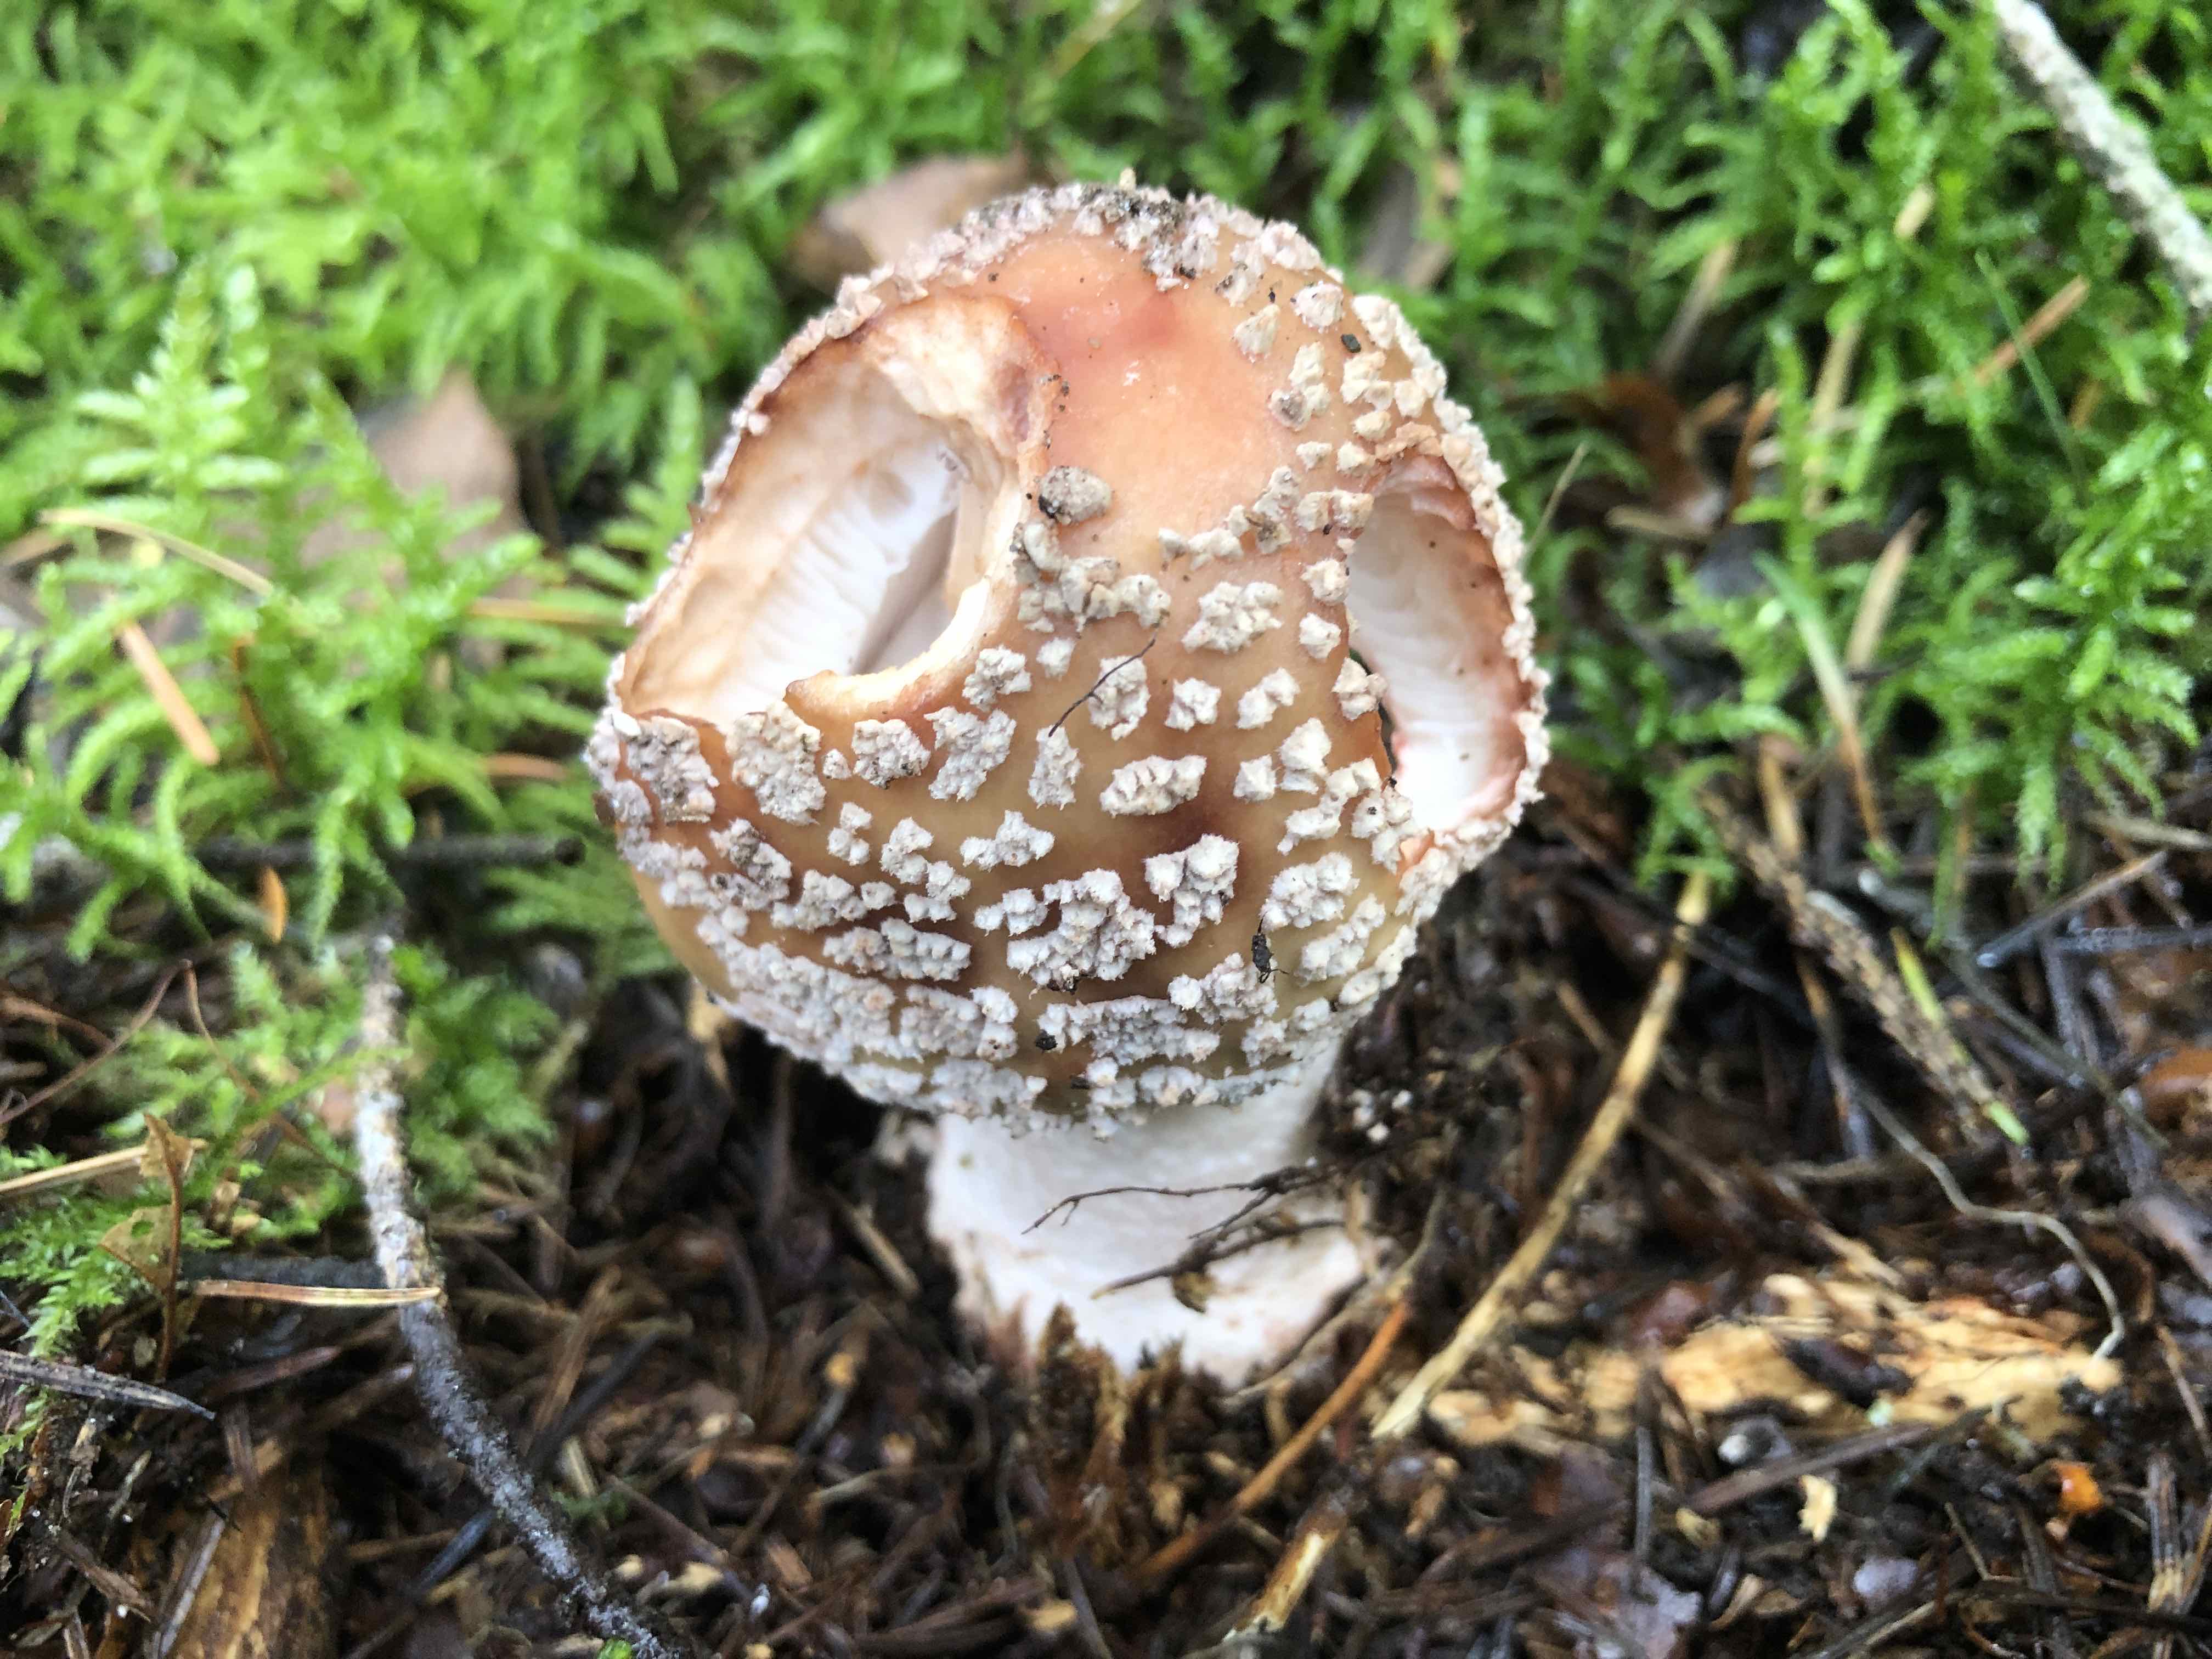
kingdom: Fungi
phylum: Basidiomycota
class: Agaricomycetes
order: Agaricales
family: Amanitaceae
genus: Amanita
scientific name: Amanita rubescens
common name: rødmende fluesvamp
